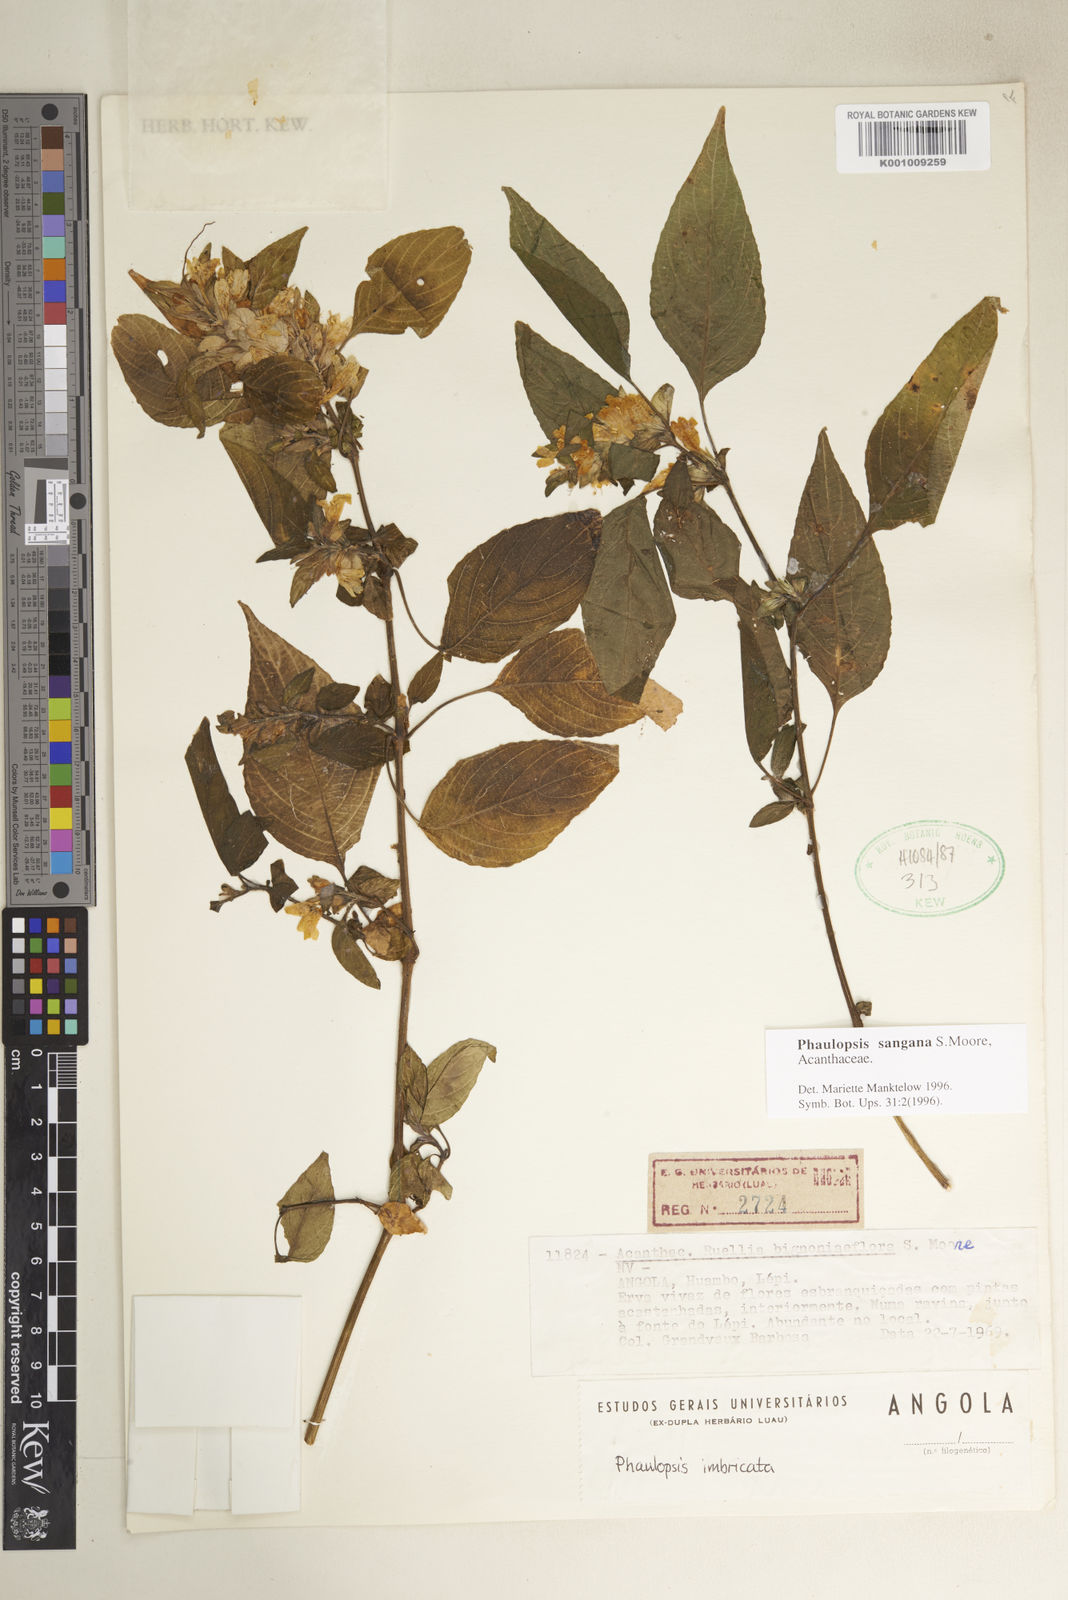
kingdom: Plantae
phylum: Tracheophyta
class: Magnoliopsida
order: Lamiales
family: Acanthaceae
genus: Phaulopsis
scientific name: Phaulopsis sangana
